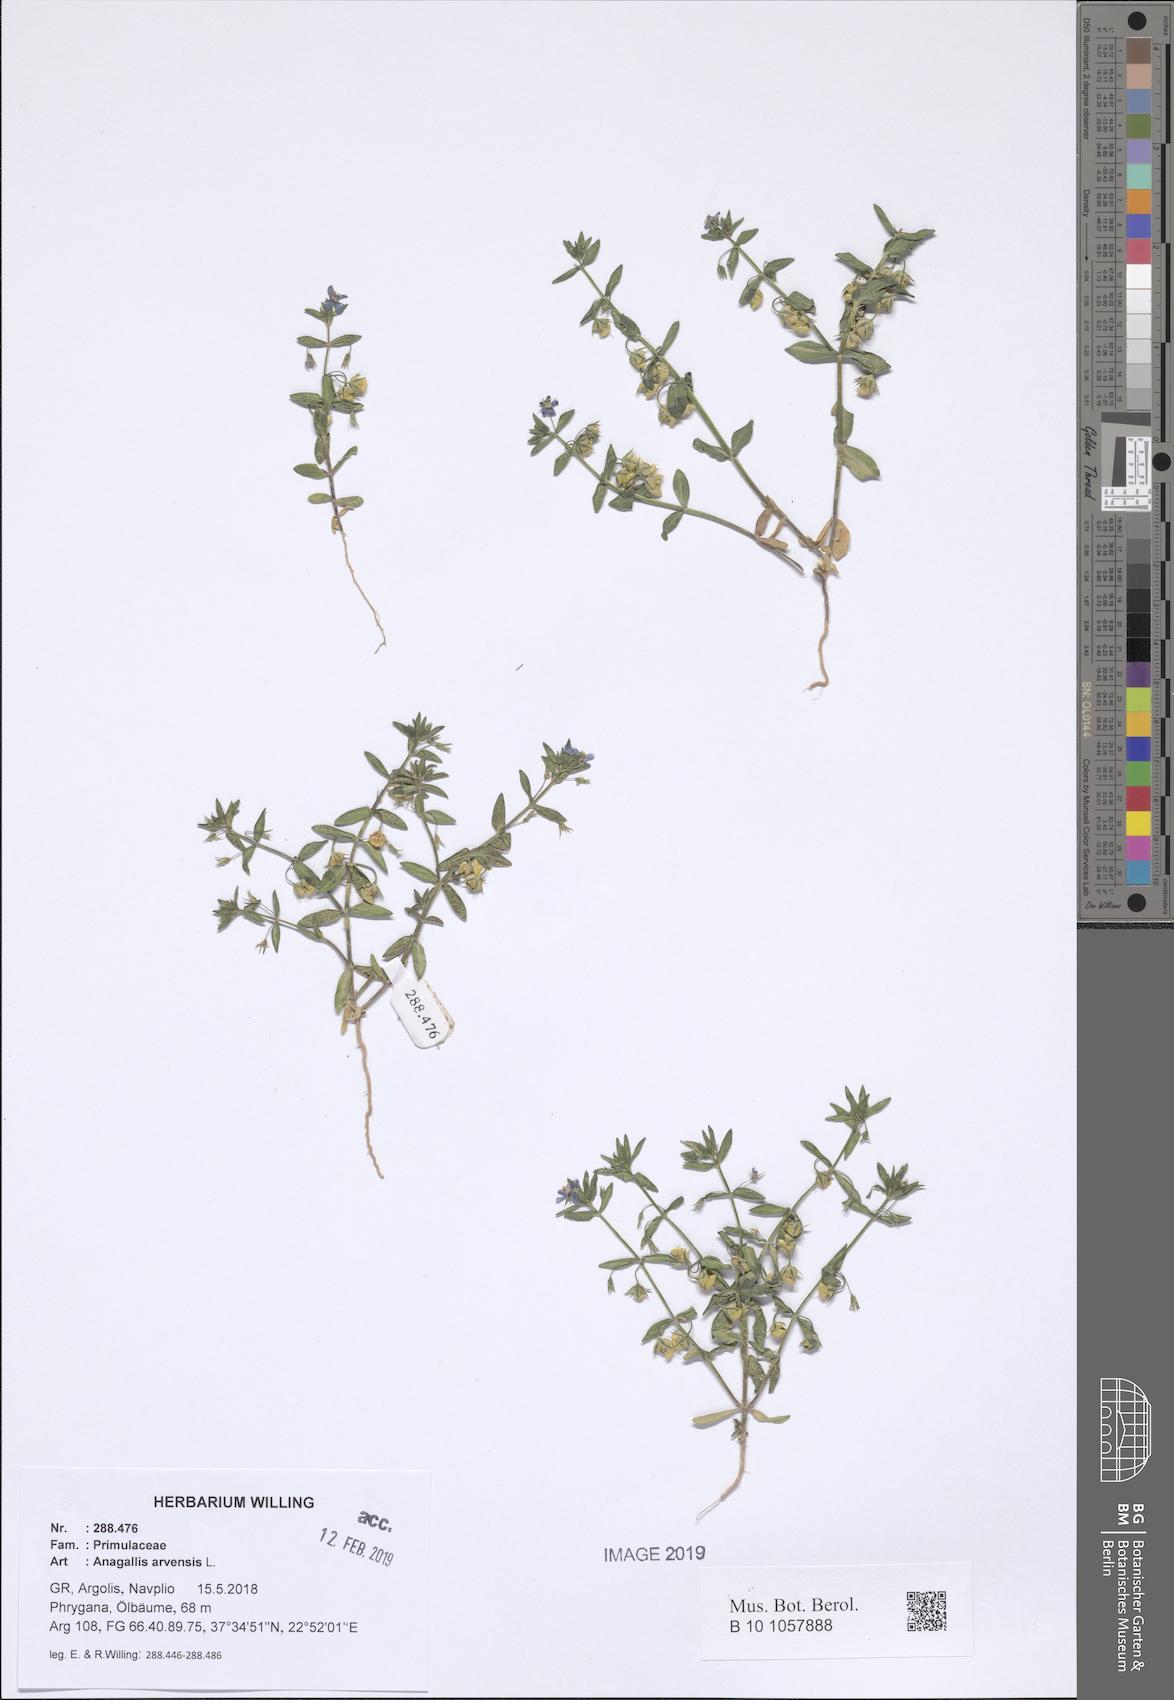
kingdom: Plantae
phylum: Tracheophyta
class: Magnoliopsida
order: Ericales
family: Primulaceae
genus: Lysimachia
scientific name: Lysimachia arvensis
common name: Scarlet pimpernel
